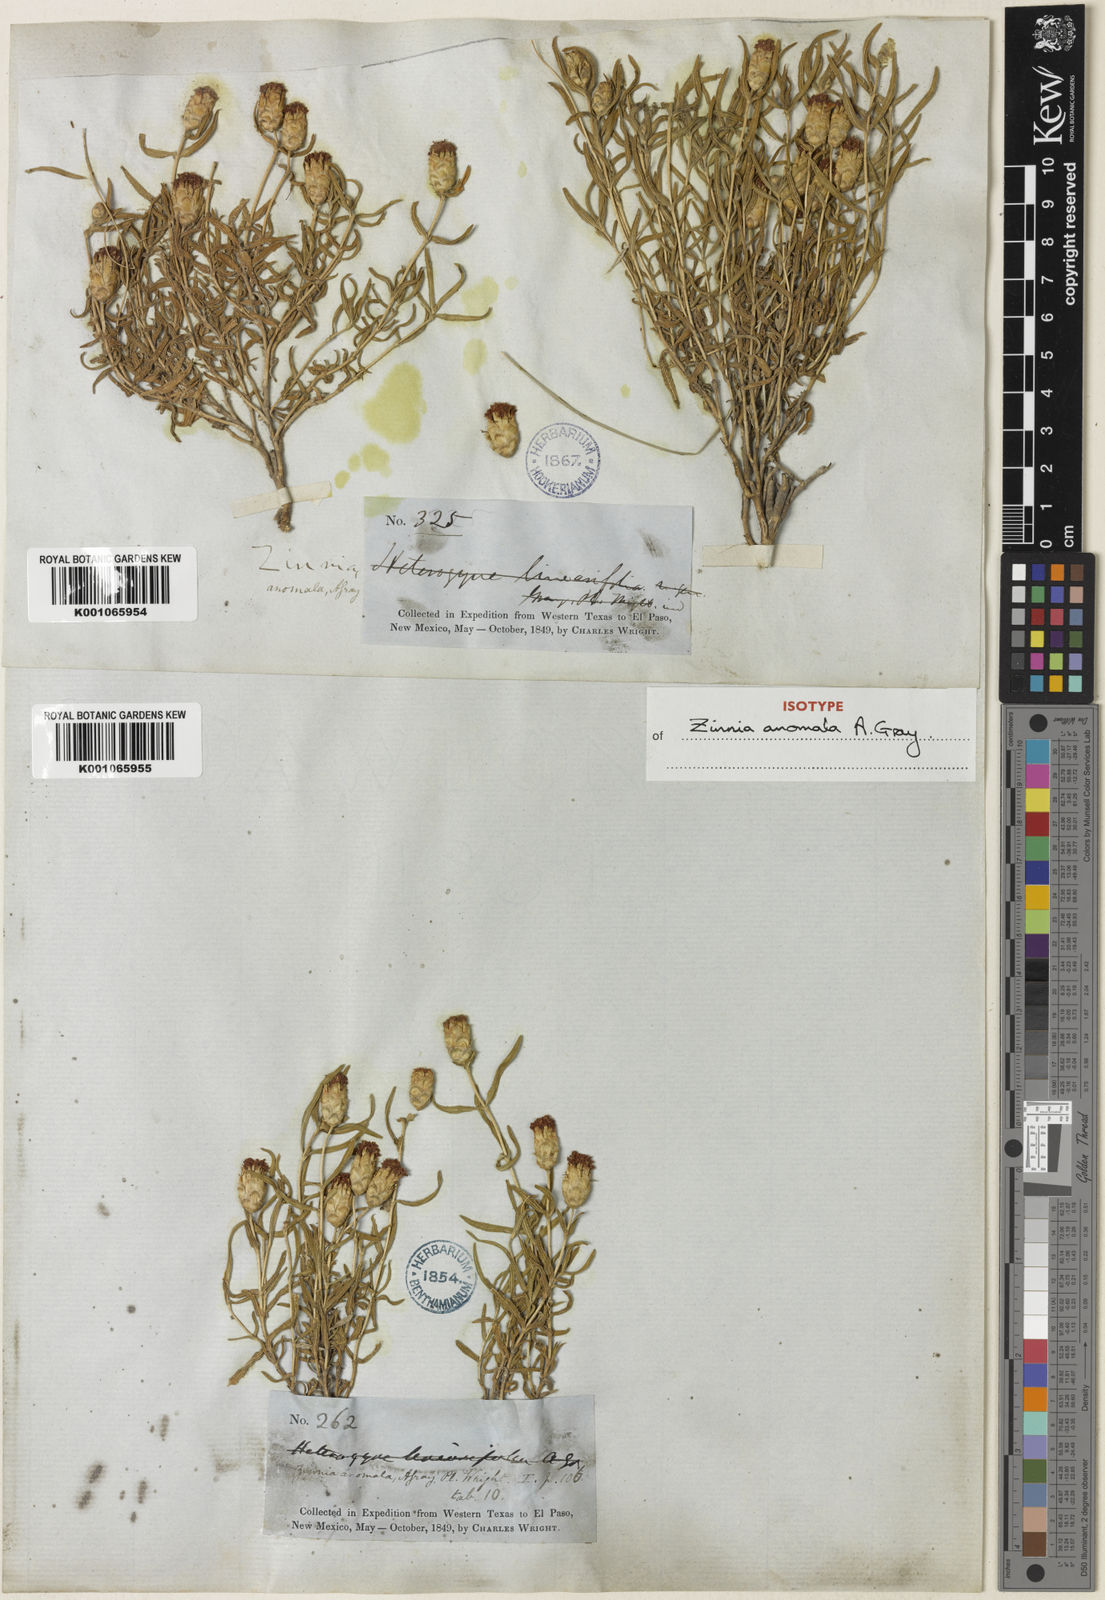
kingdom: Plantae
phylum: Tracheophyta
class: Magnoliopsida
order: Asterales
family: Asteraceae
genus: Zinnia
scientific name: Zinnia anomala
